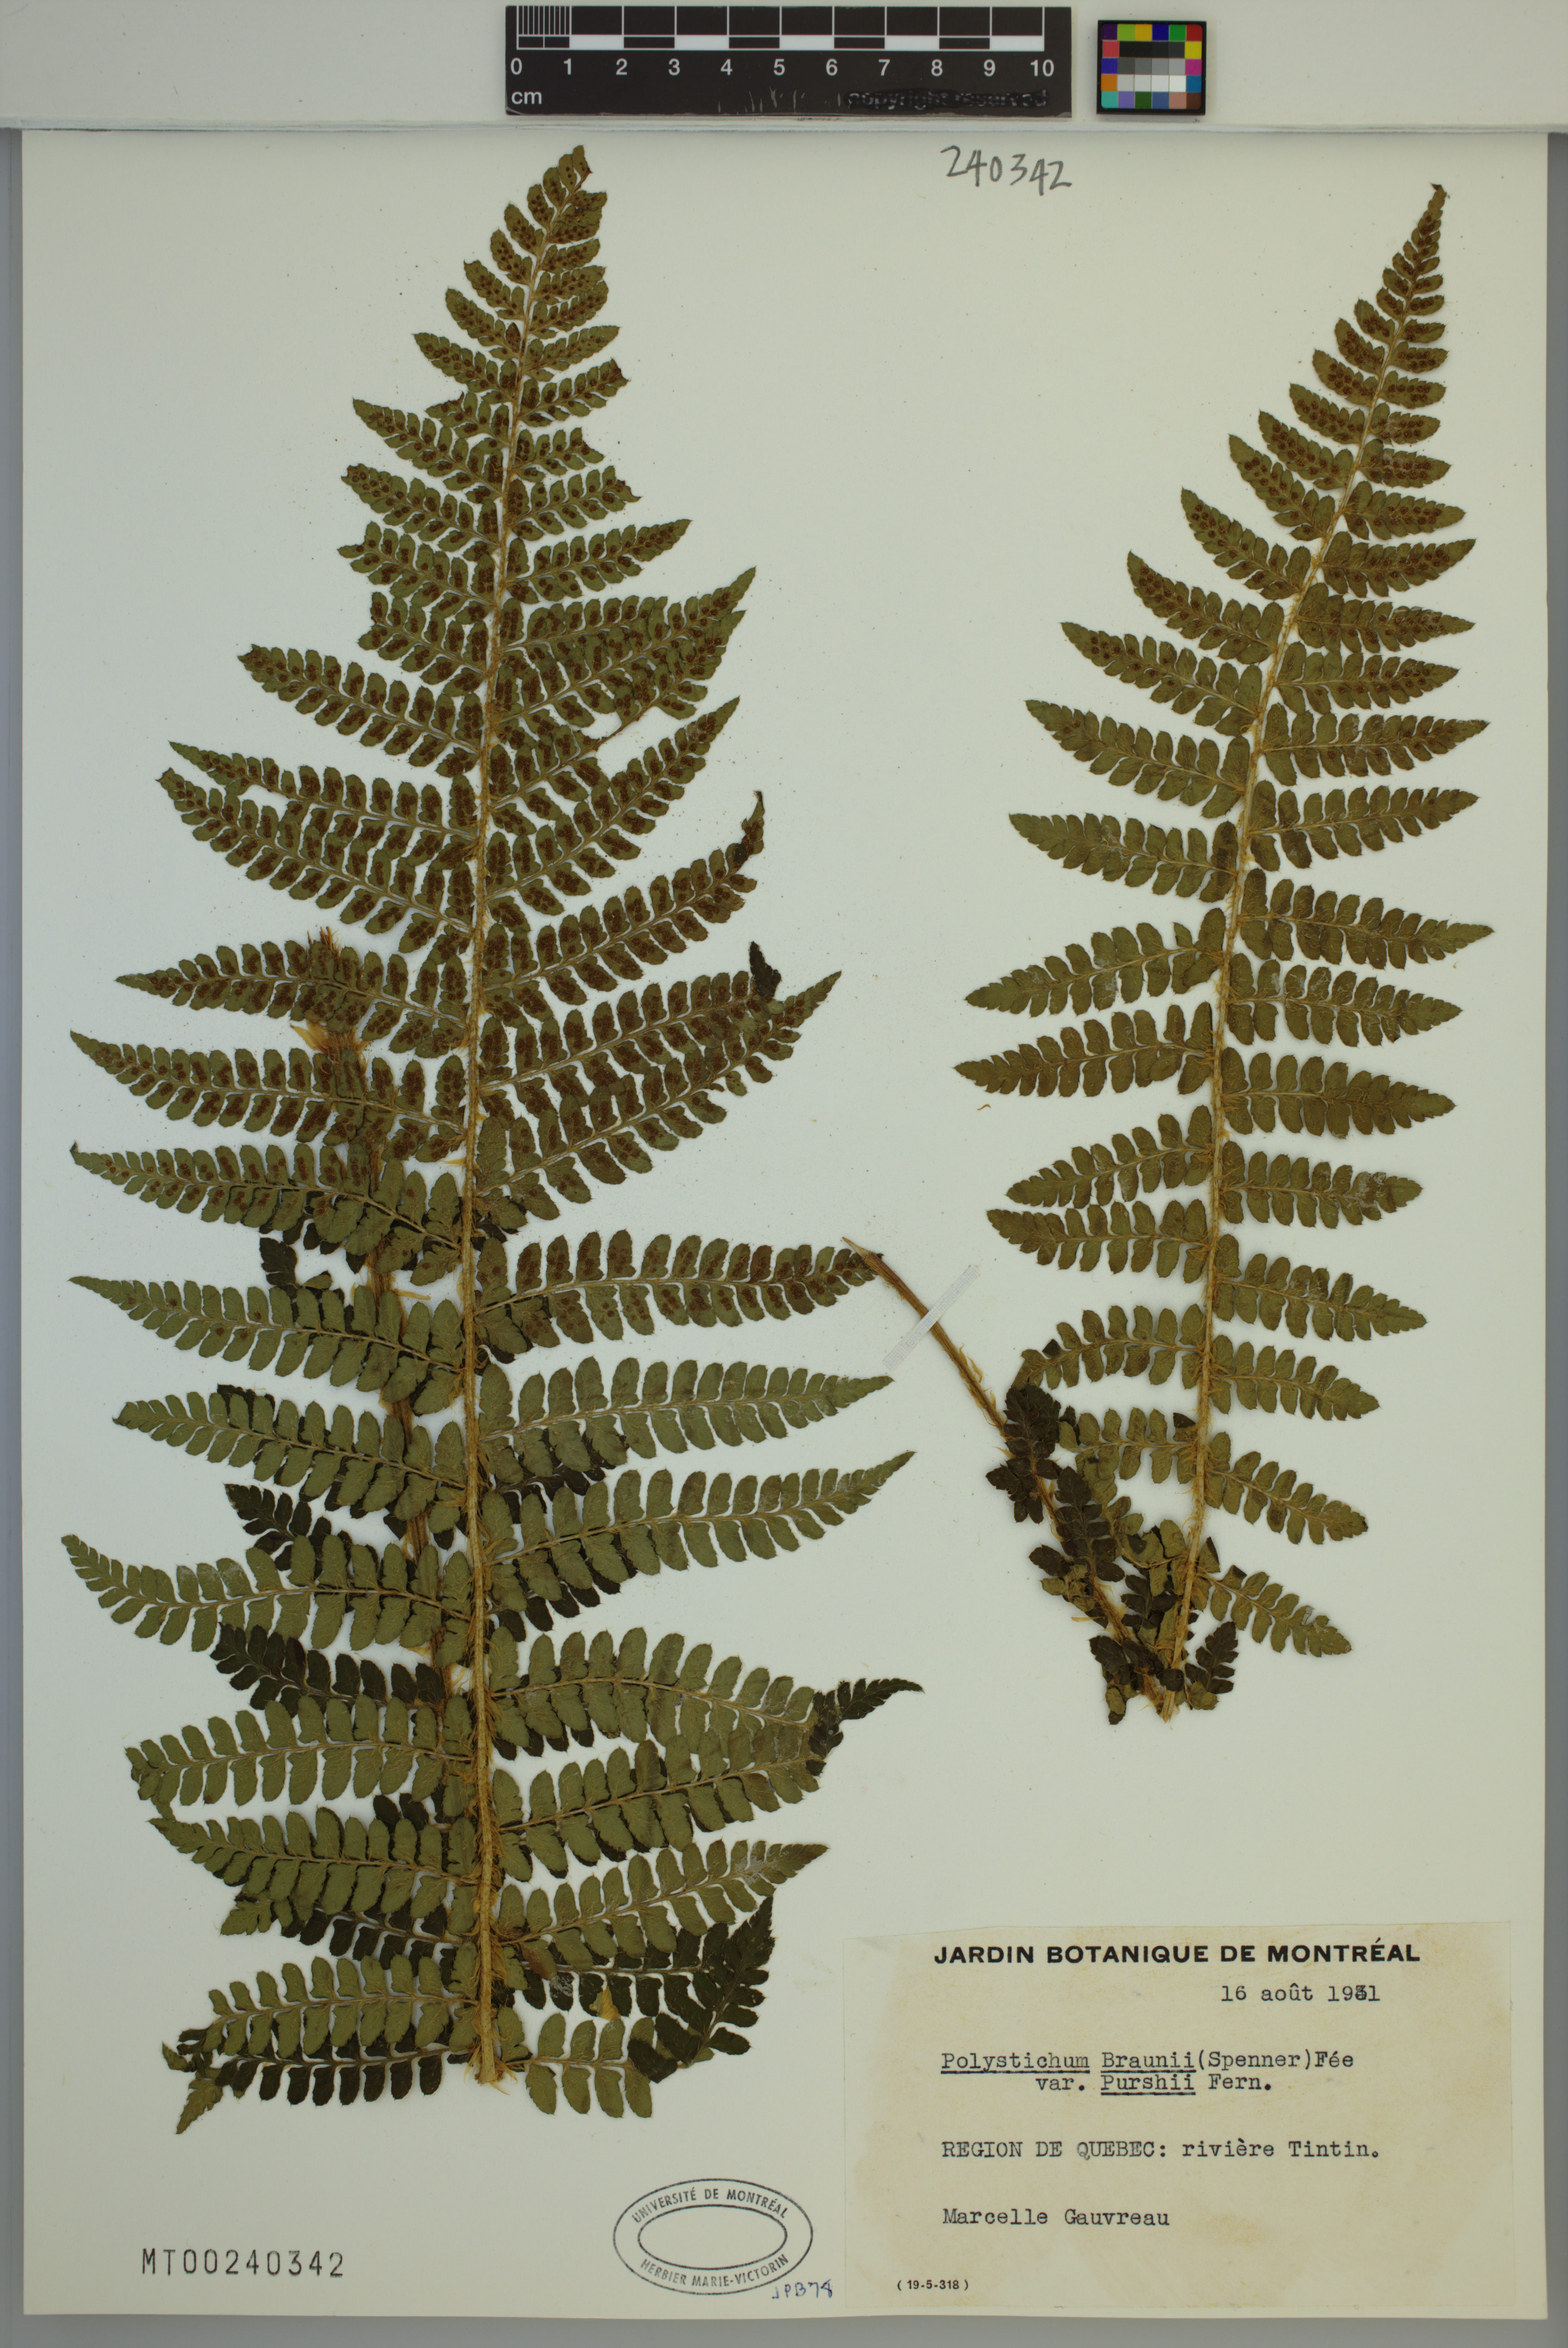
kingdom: Plantae
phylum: Tracheophyta
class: Polypodiopsida
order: Polypodiales
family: Dryopteridaceae
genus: Polystichum
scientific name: Polystichum braunii
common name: Braun's holly fern
